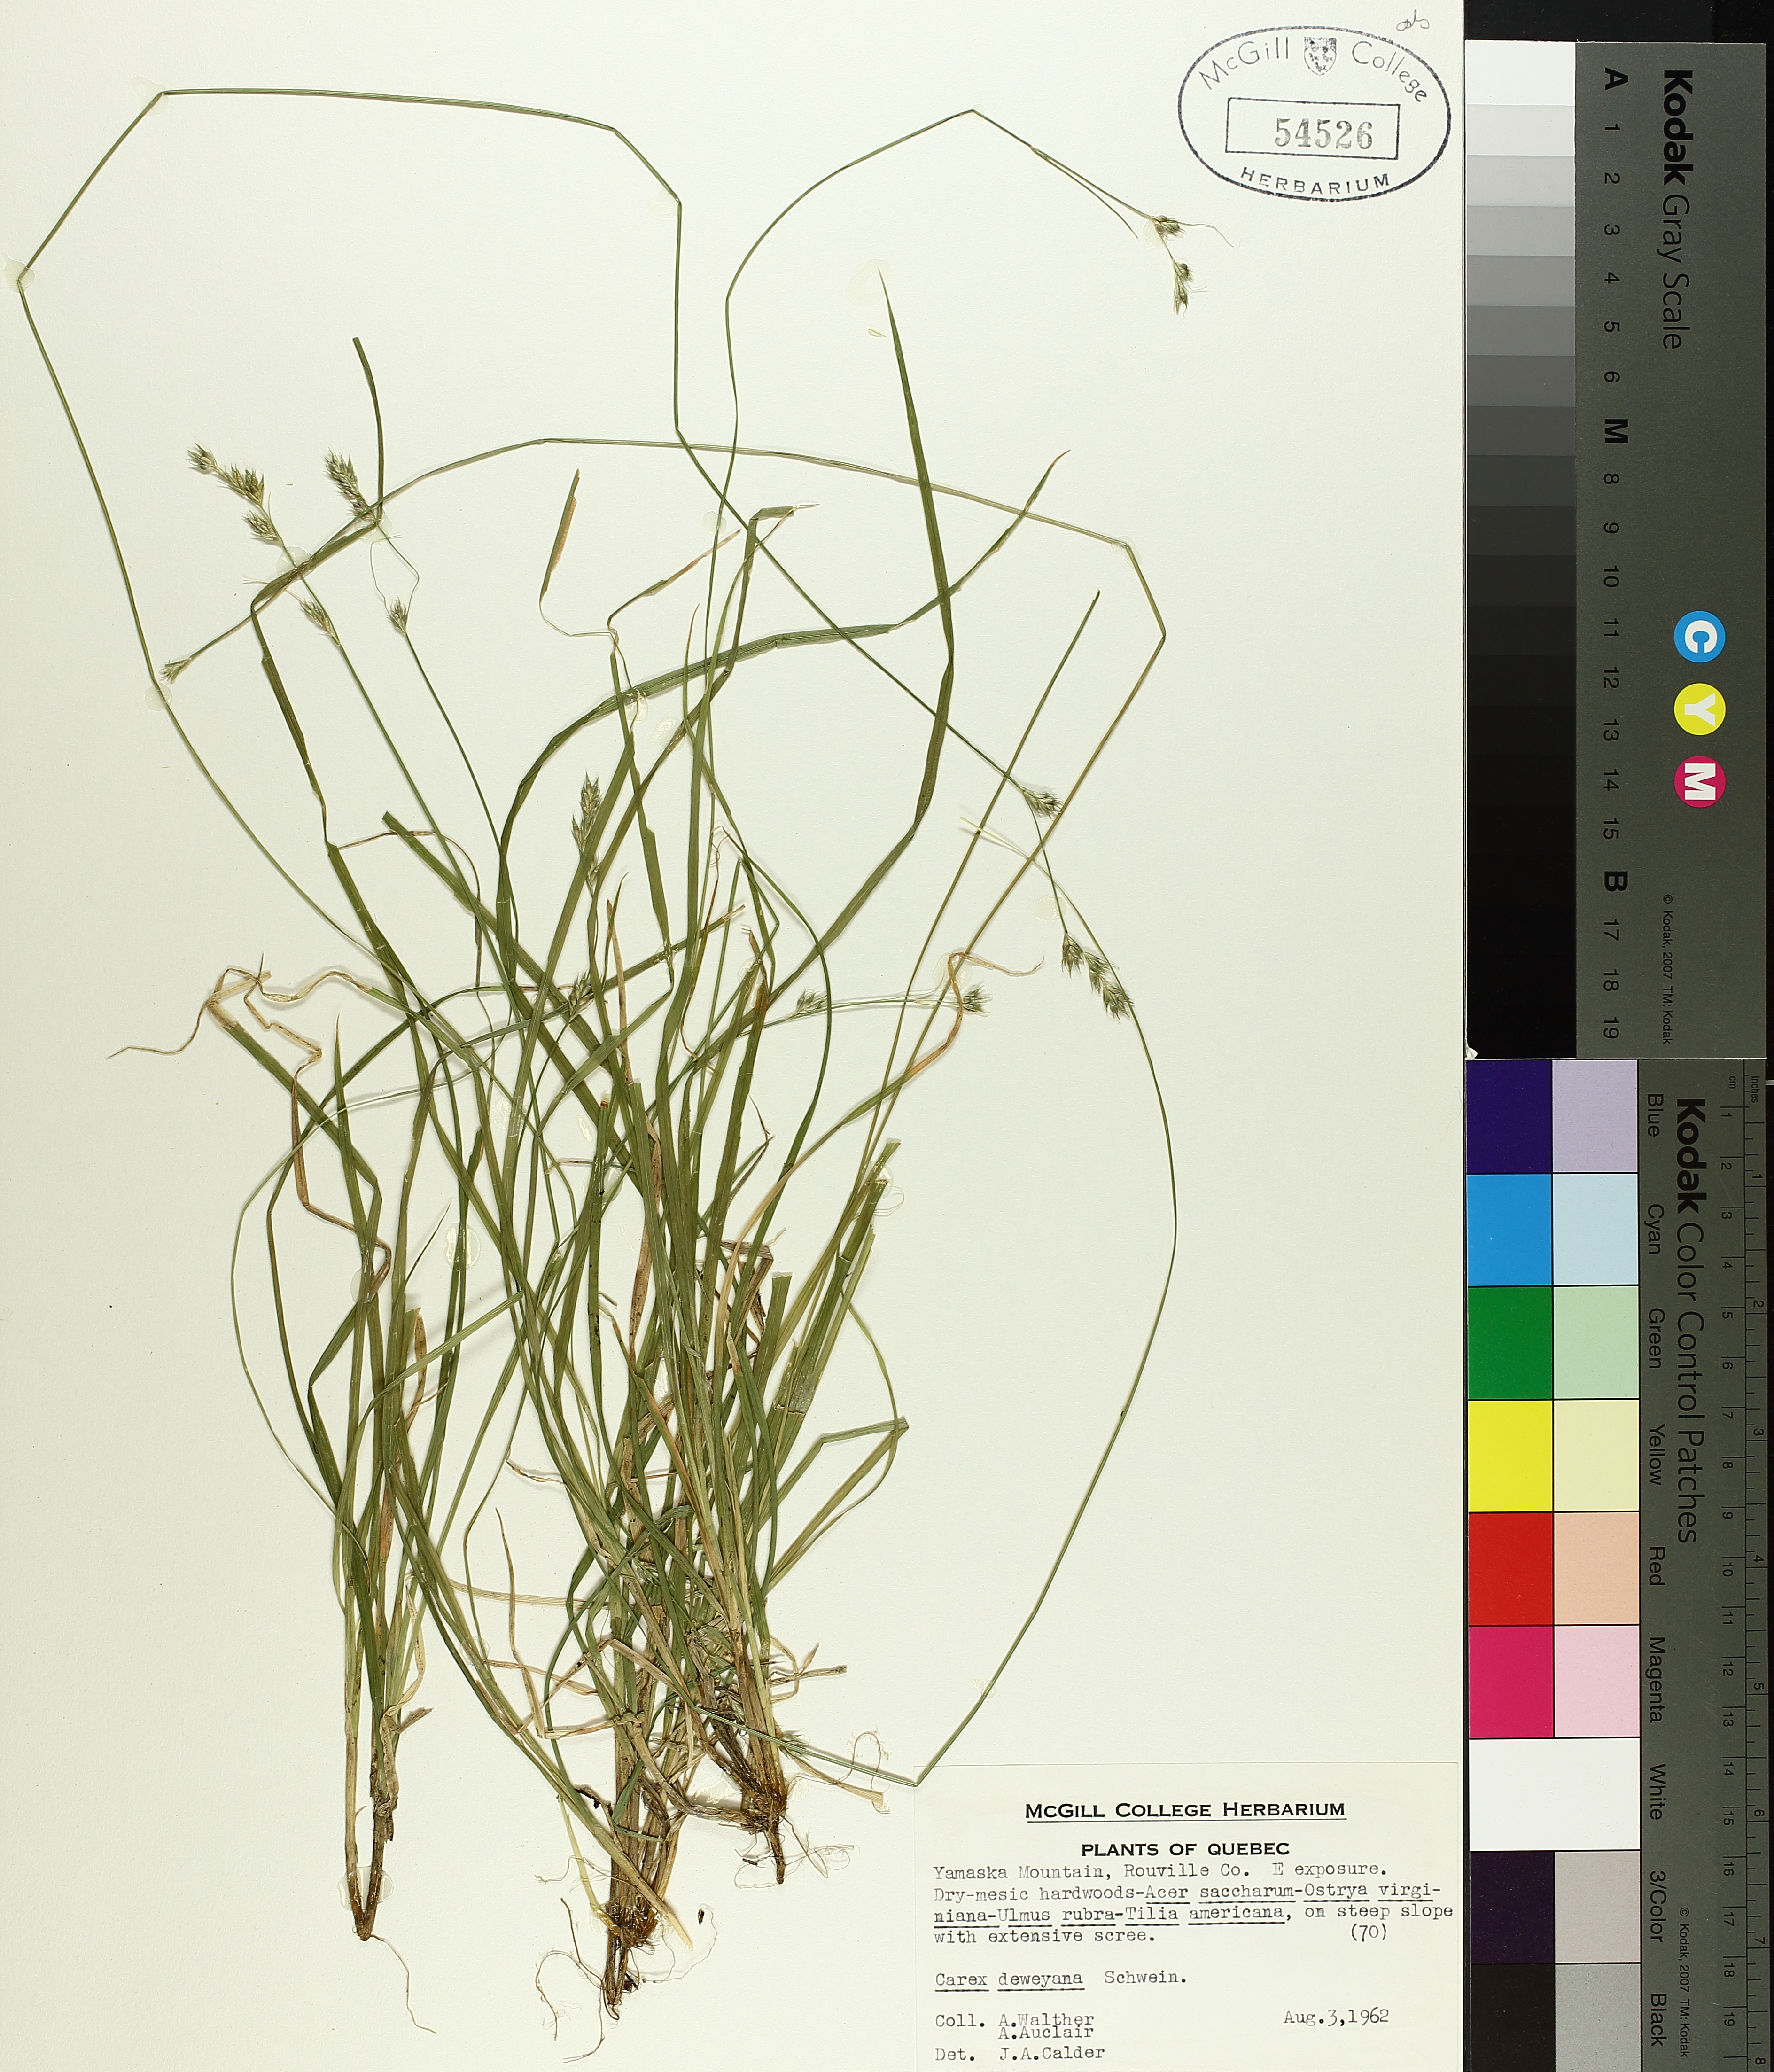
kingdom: Plantae
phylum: Tracheophyta
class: Liliopsida
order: Poales
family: Cyperaceae
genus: Carex
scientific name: Carex deweyana
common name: Dewey's sedge
